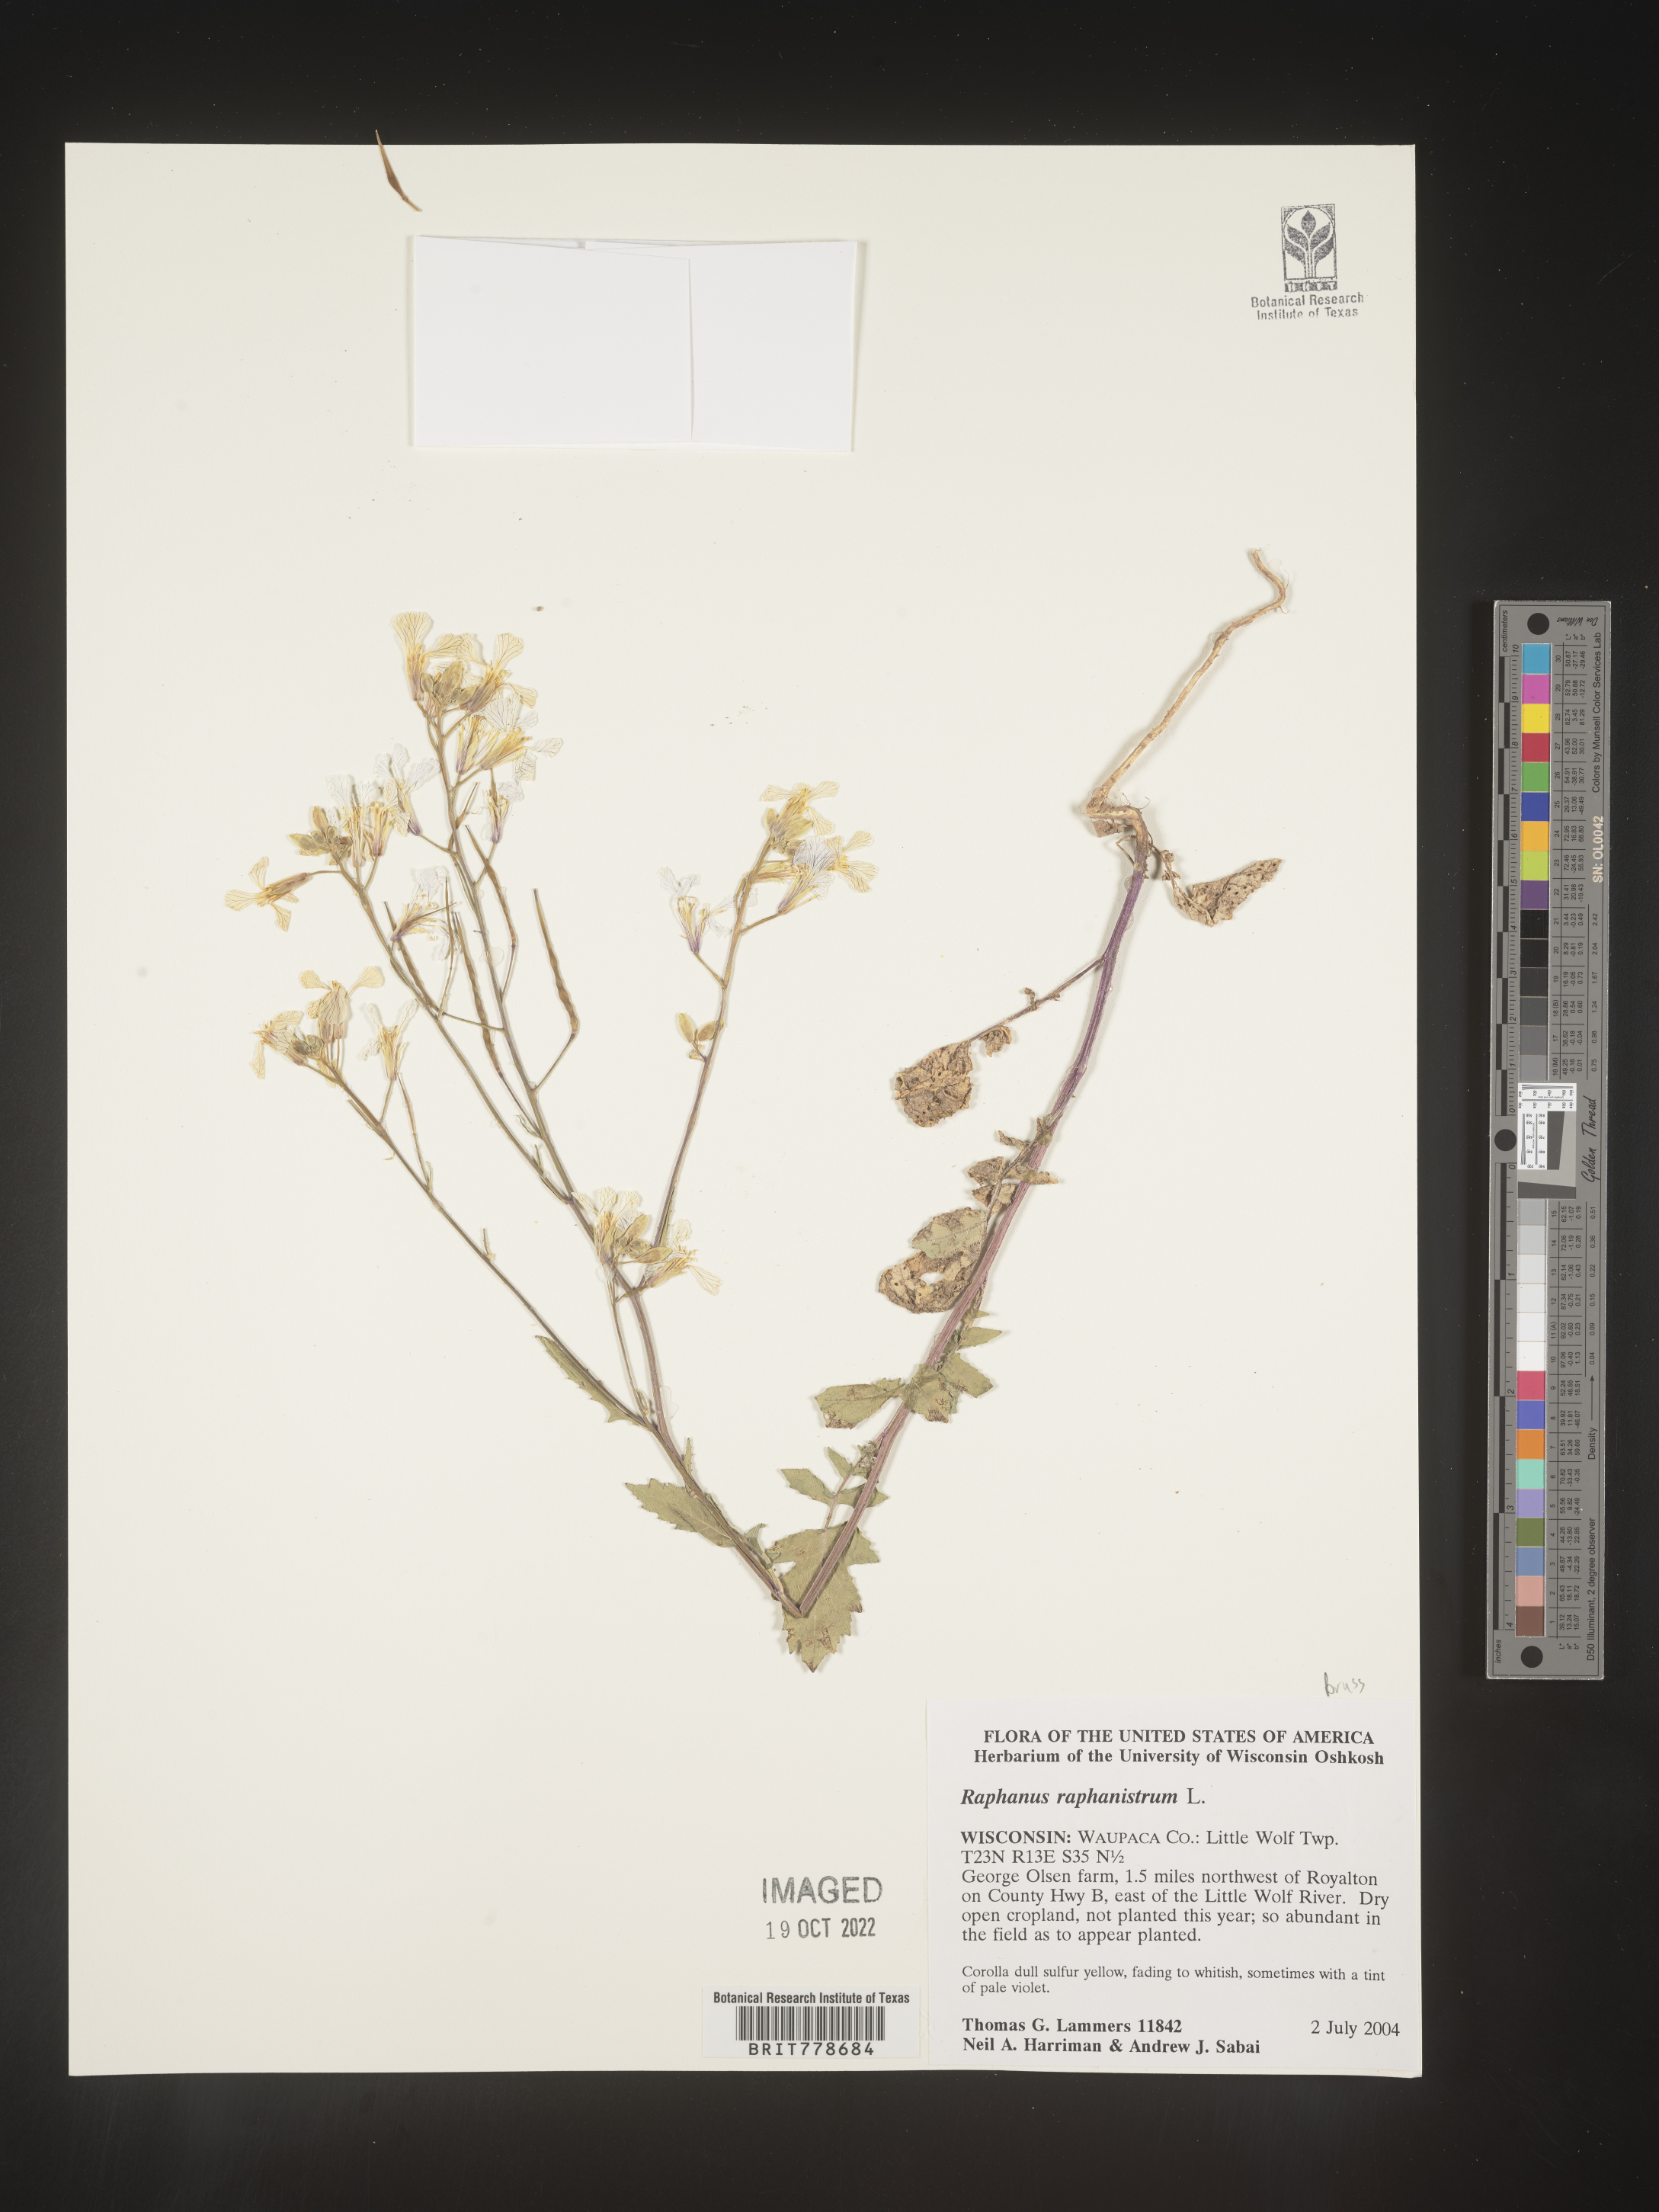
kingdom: Plantae
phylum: Tracheophyta
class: Magnoliopsida
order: Brassicales
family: Brassicaceae
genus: Raphanus
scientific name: Raphanus raphanistrum
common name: Wild radish
